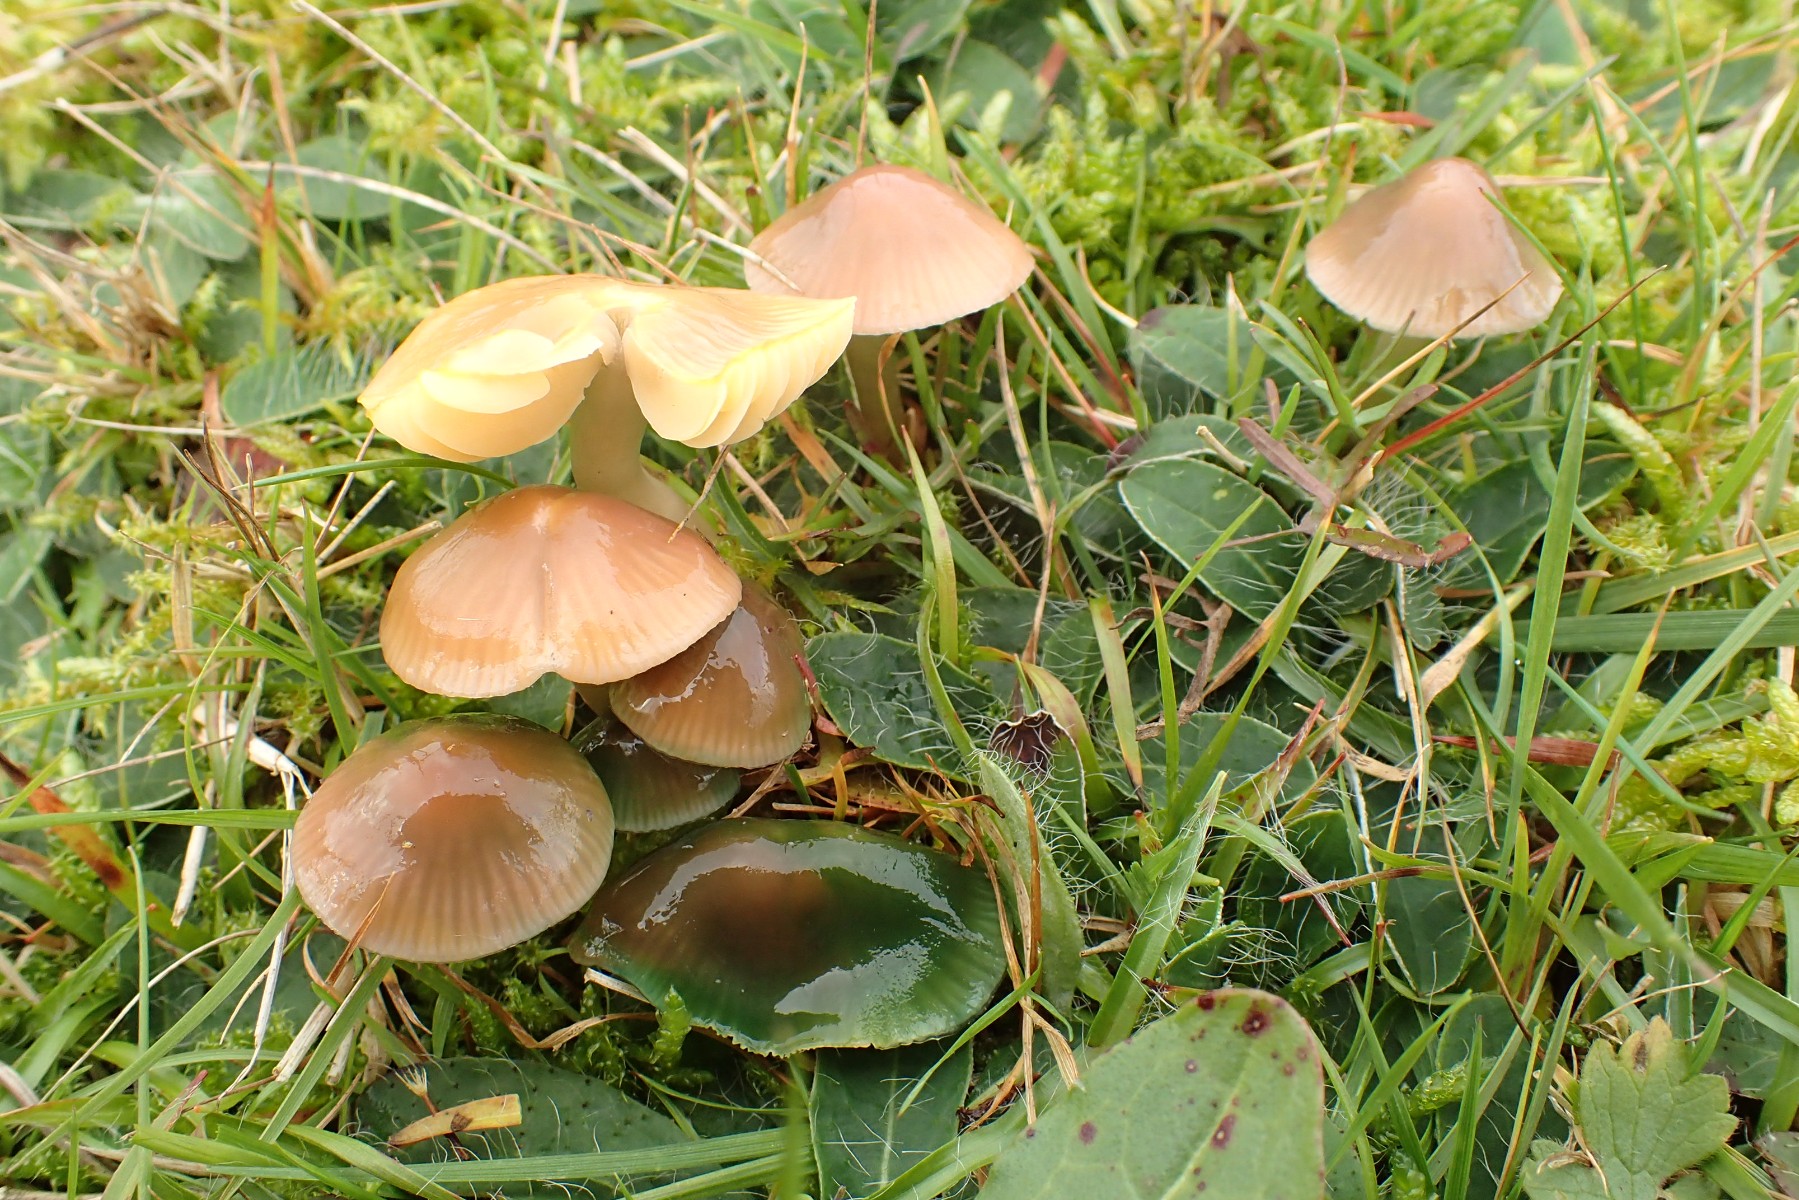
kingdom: Fungi
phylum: Basidiomycota
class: Agaricomycetes
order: Agaricales
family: Hygrophoraceae
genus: Gliophorus
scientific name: Gliophorus psittacinus
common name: papegøje-vokshat
